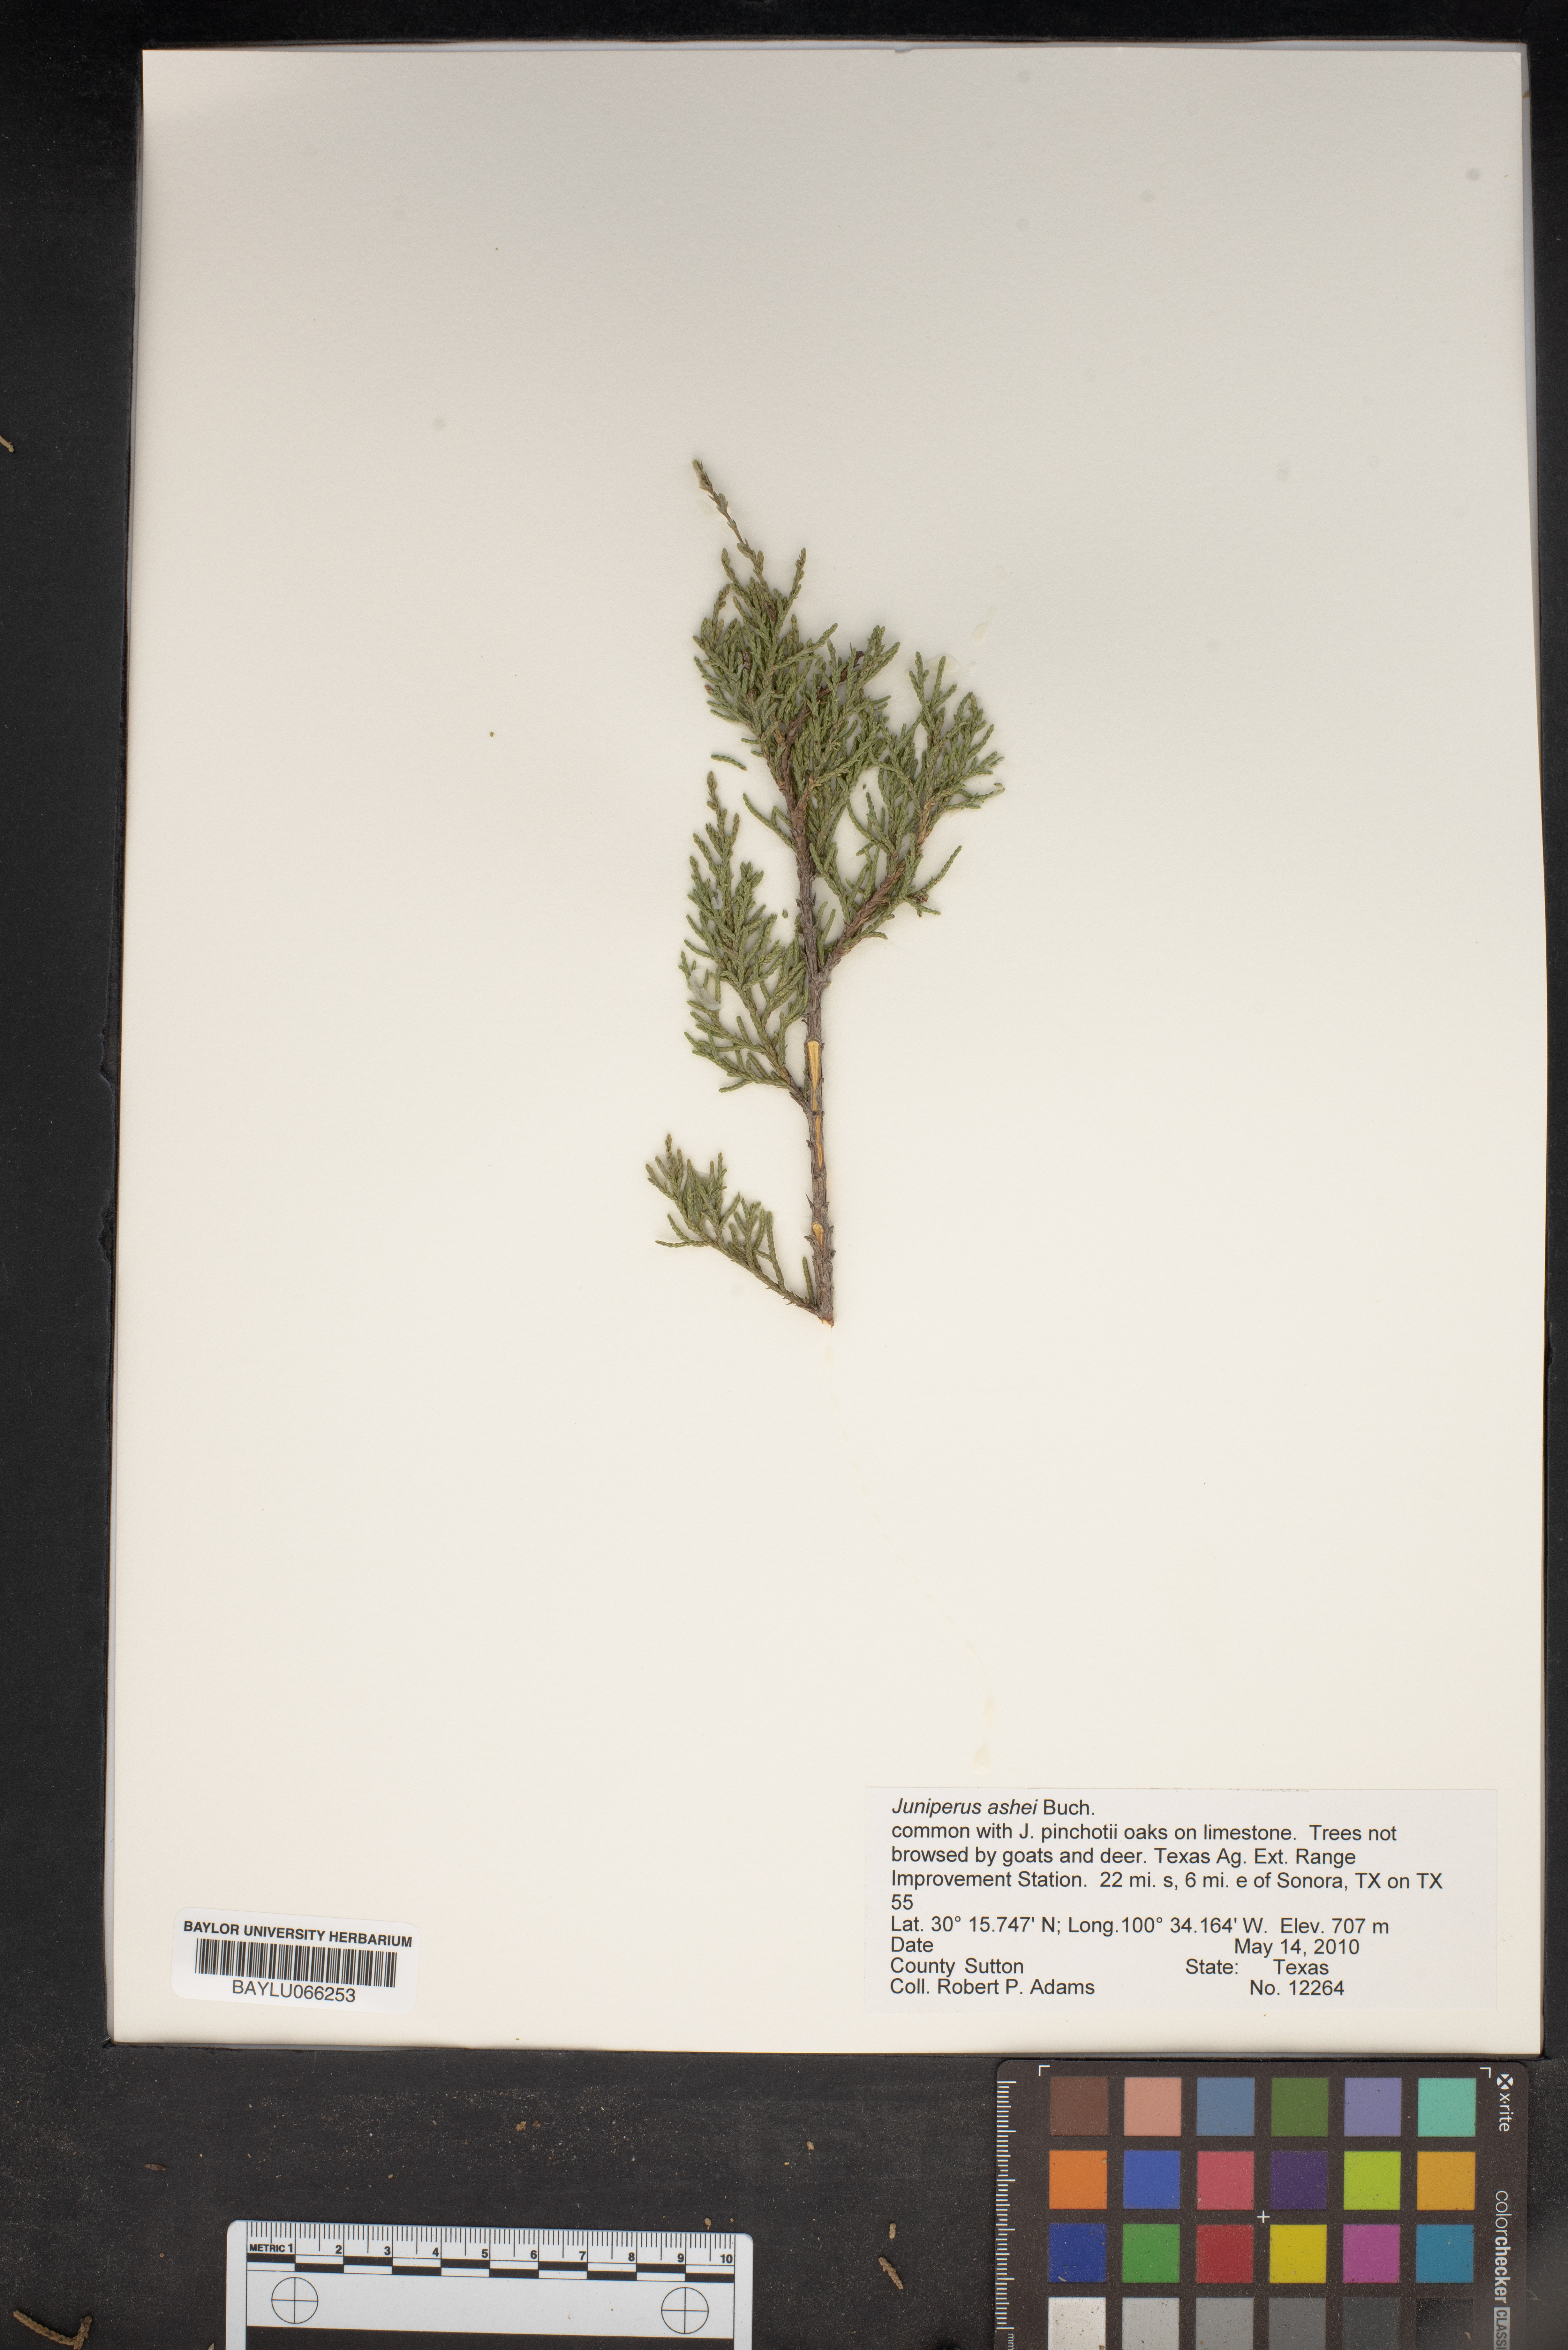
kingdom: Plantae
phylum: Tracheophyta
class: Pinopsida
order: Pinales
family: Cupressaceae
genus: Juniperus
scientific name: Juniperus ashei
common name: Mexican juniper
